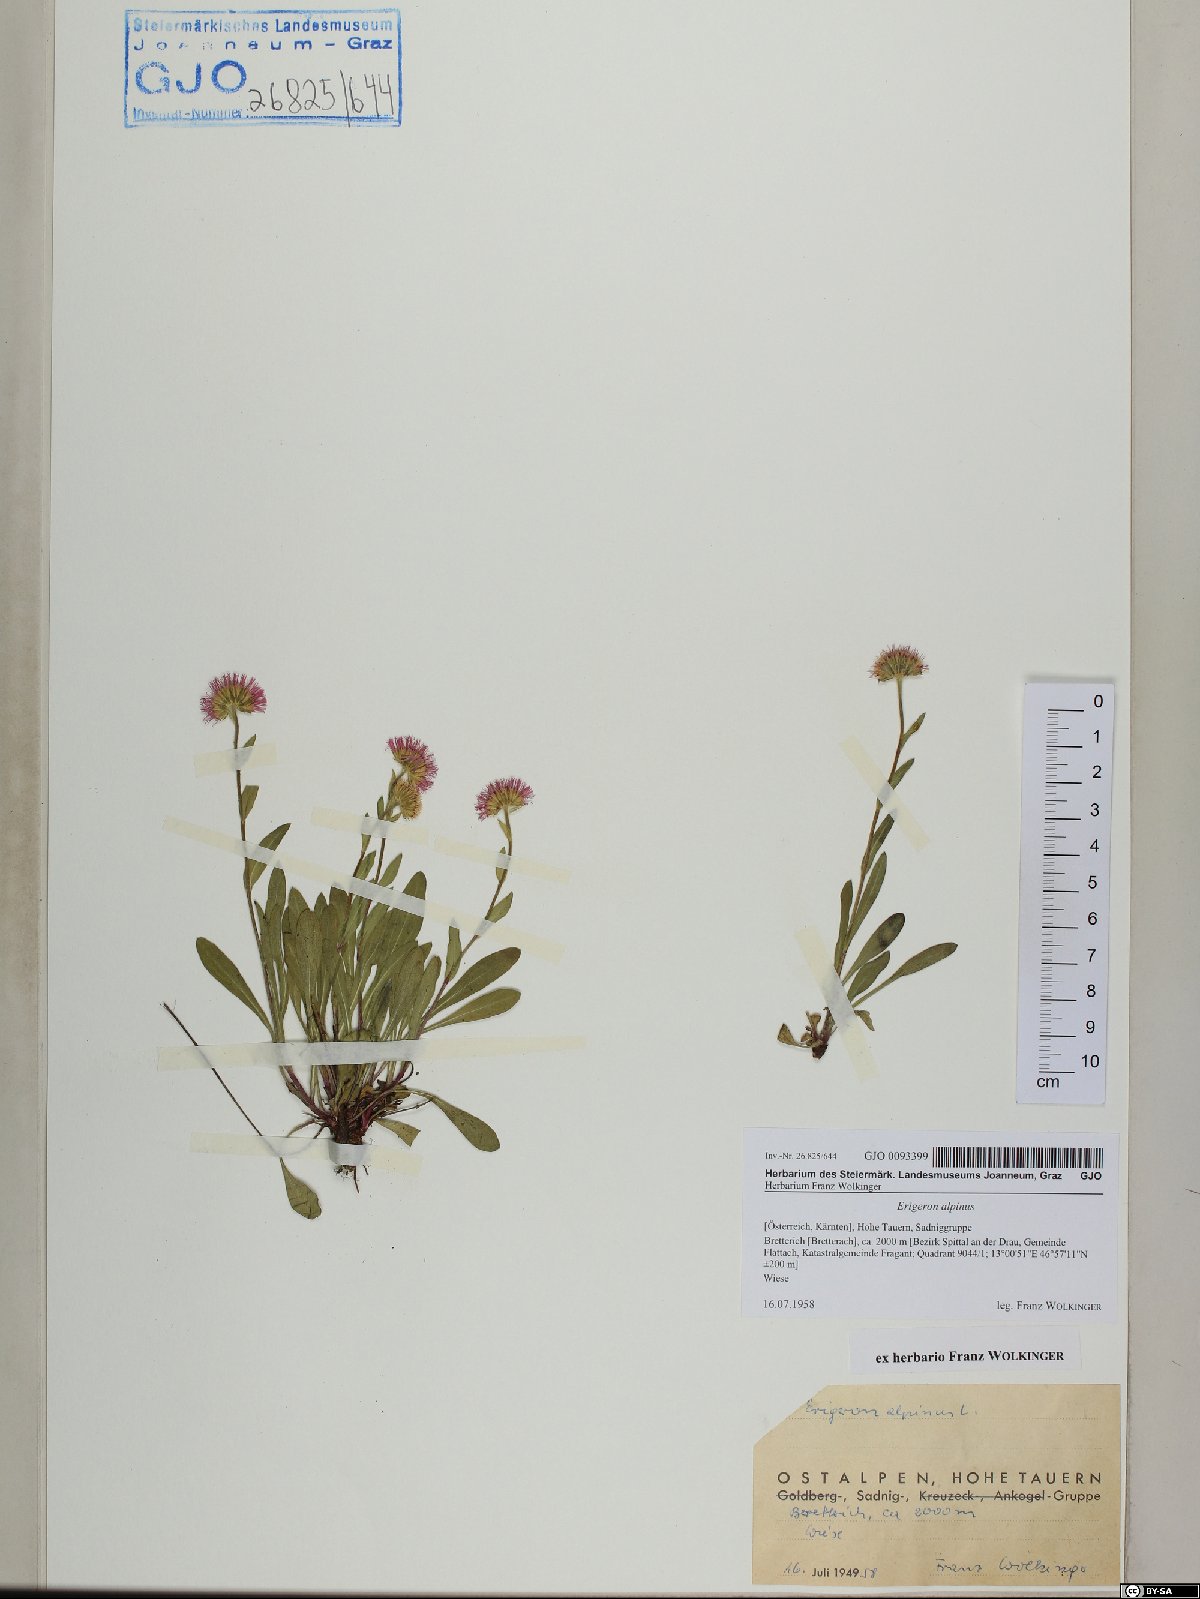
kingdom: Plantae
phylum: Tracheophyta
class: Magnoliopsida
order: Asterales
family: Asteraceae
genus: Erigeron
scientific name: Erigeron alpinus
